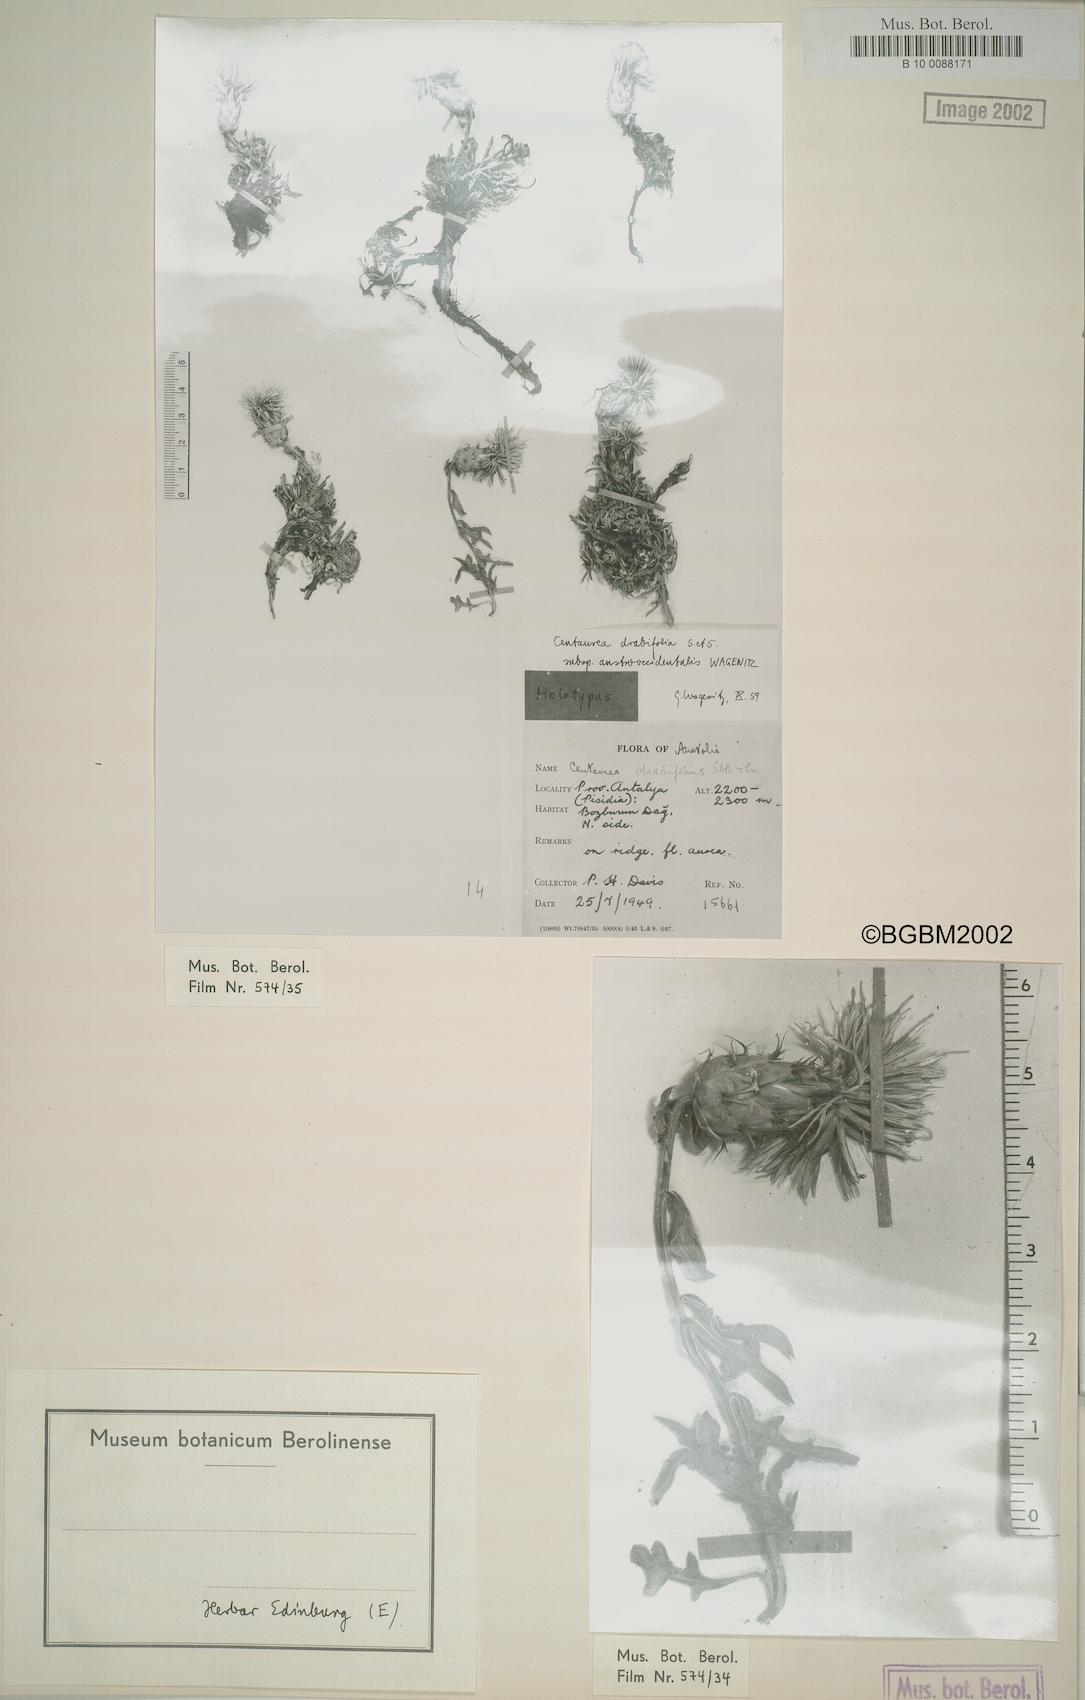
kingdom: Plantae
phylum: Tracheophyta
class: Magnoliopsida
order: Asterales
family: Asteraceae
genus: Centaurea
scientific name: Centaurea drabifolia
